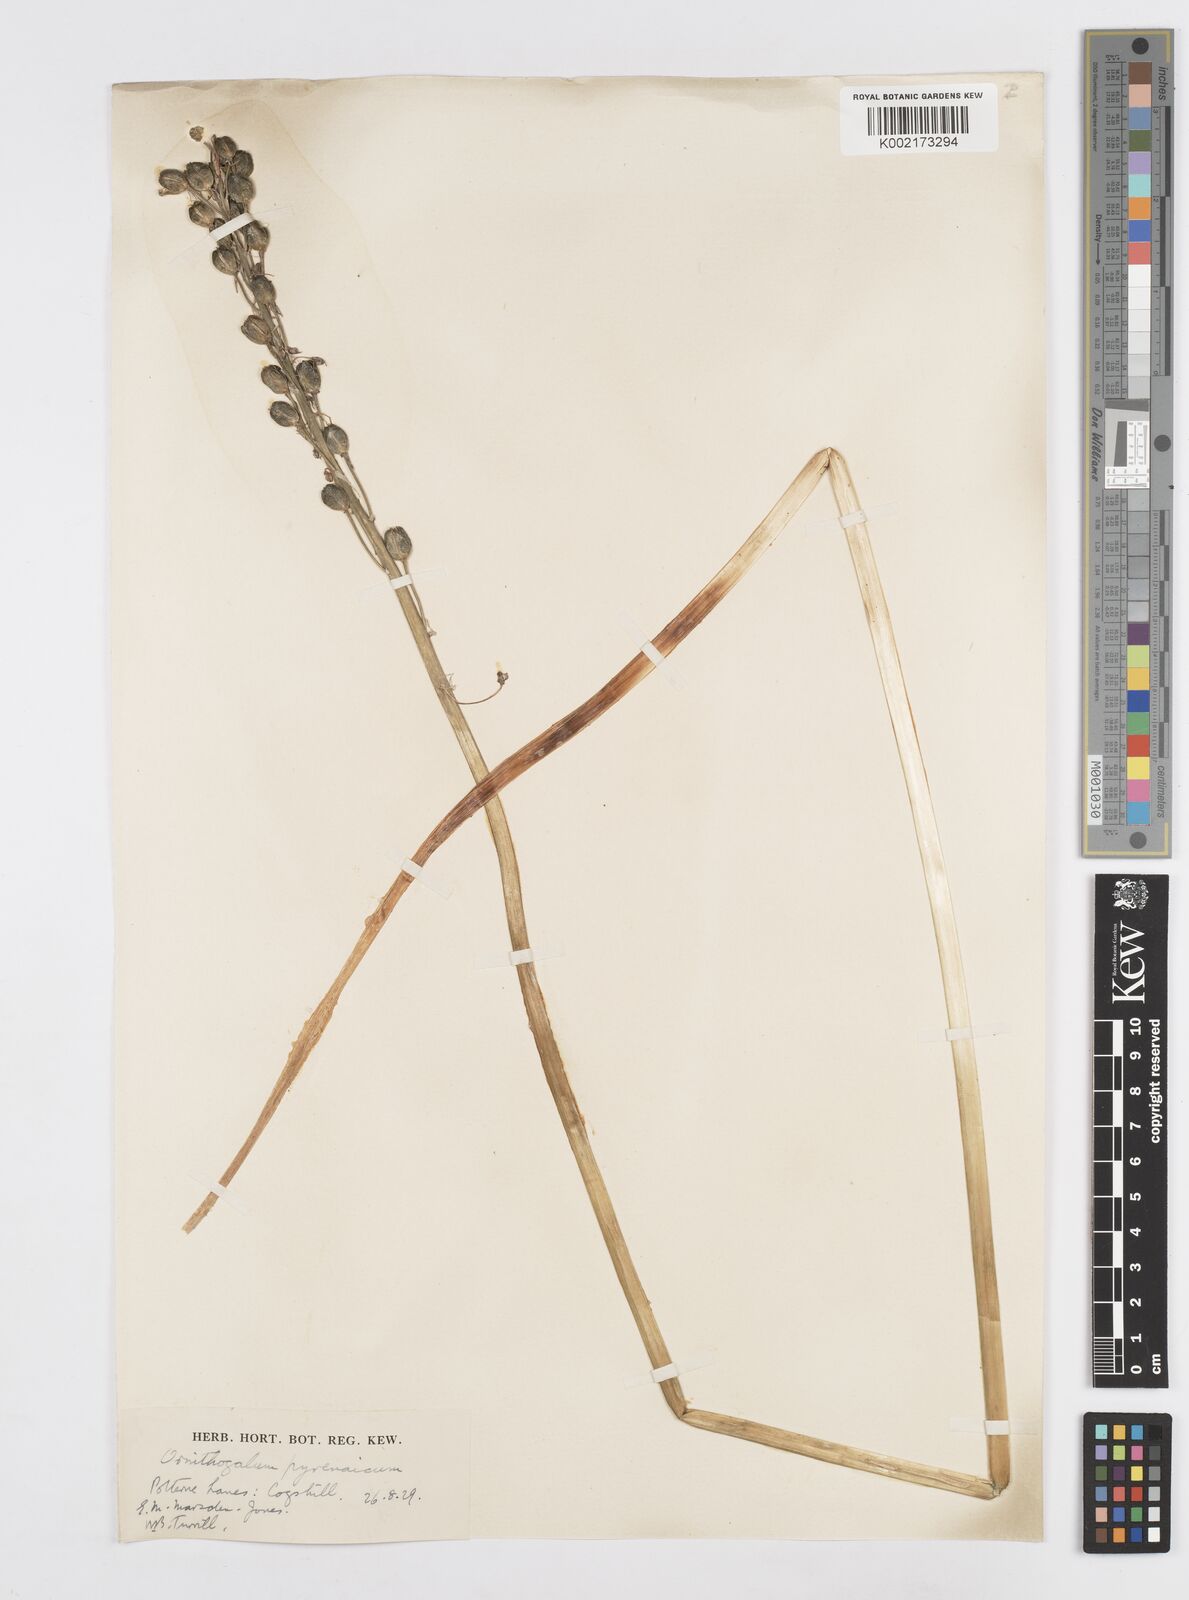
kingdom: Plantae
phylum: Tracheophyta
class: Liliopsida
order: Asparagales
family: Asparagaceae
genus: Ornithogalum
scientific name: Ornithogalum pyrenaicum
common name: Spiked star-of-bethlehem
